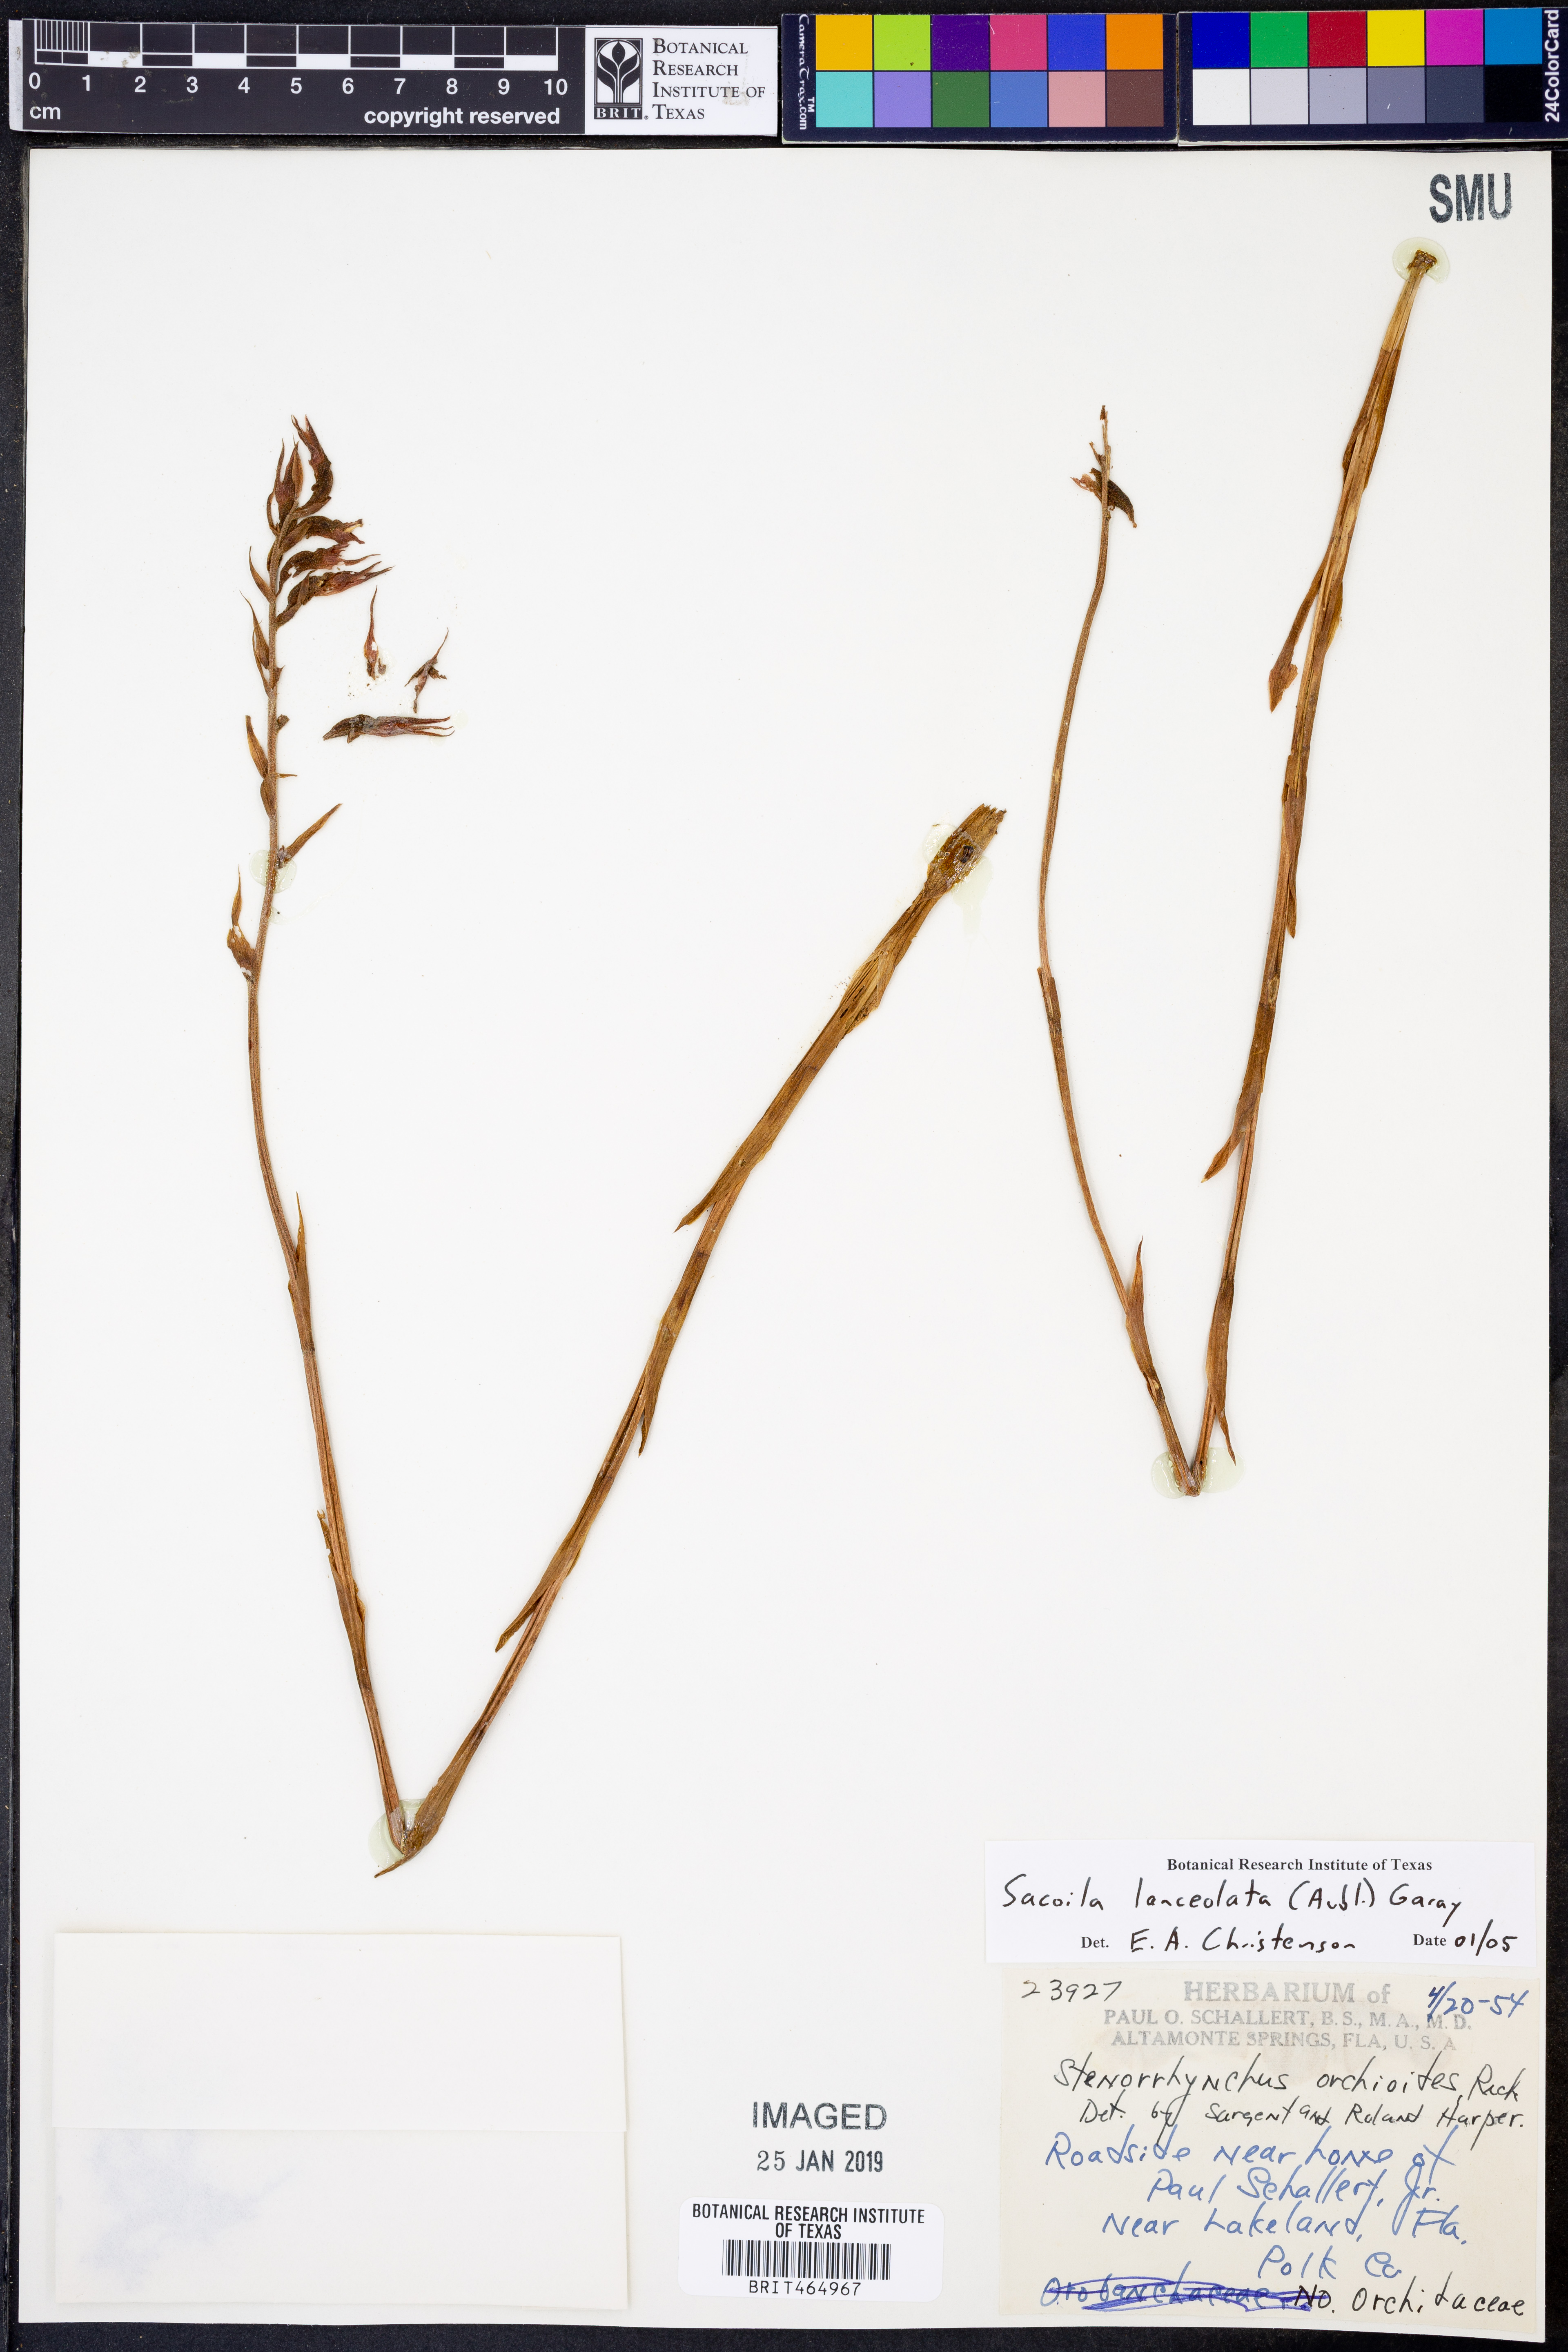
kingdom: Plantae
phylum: Tracheophyta
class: Liliopsida
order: Asparagales
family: Orchidaceae
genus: Sacoila
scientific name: Sacoila lanceolata
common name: Leafless beaked ladiestresses
